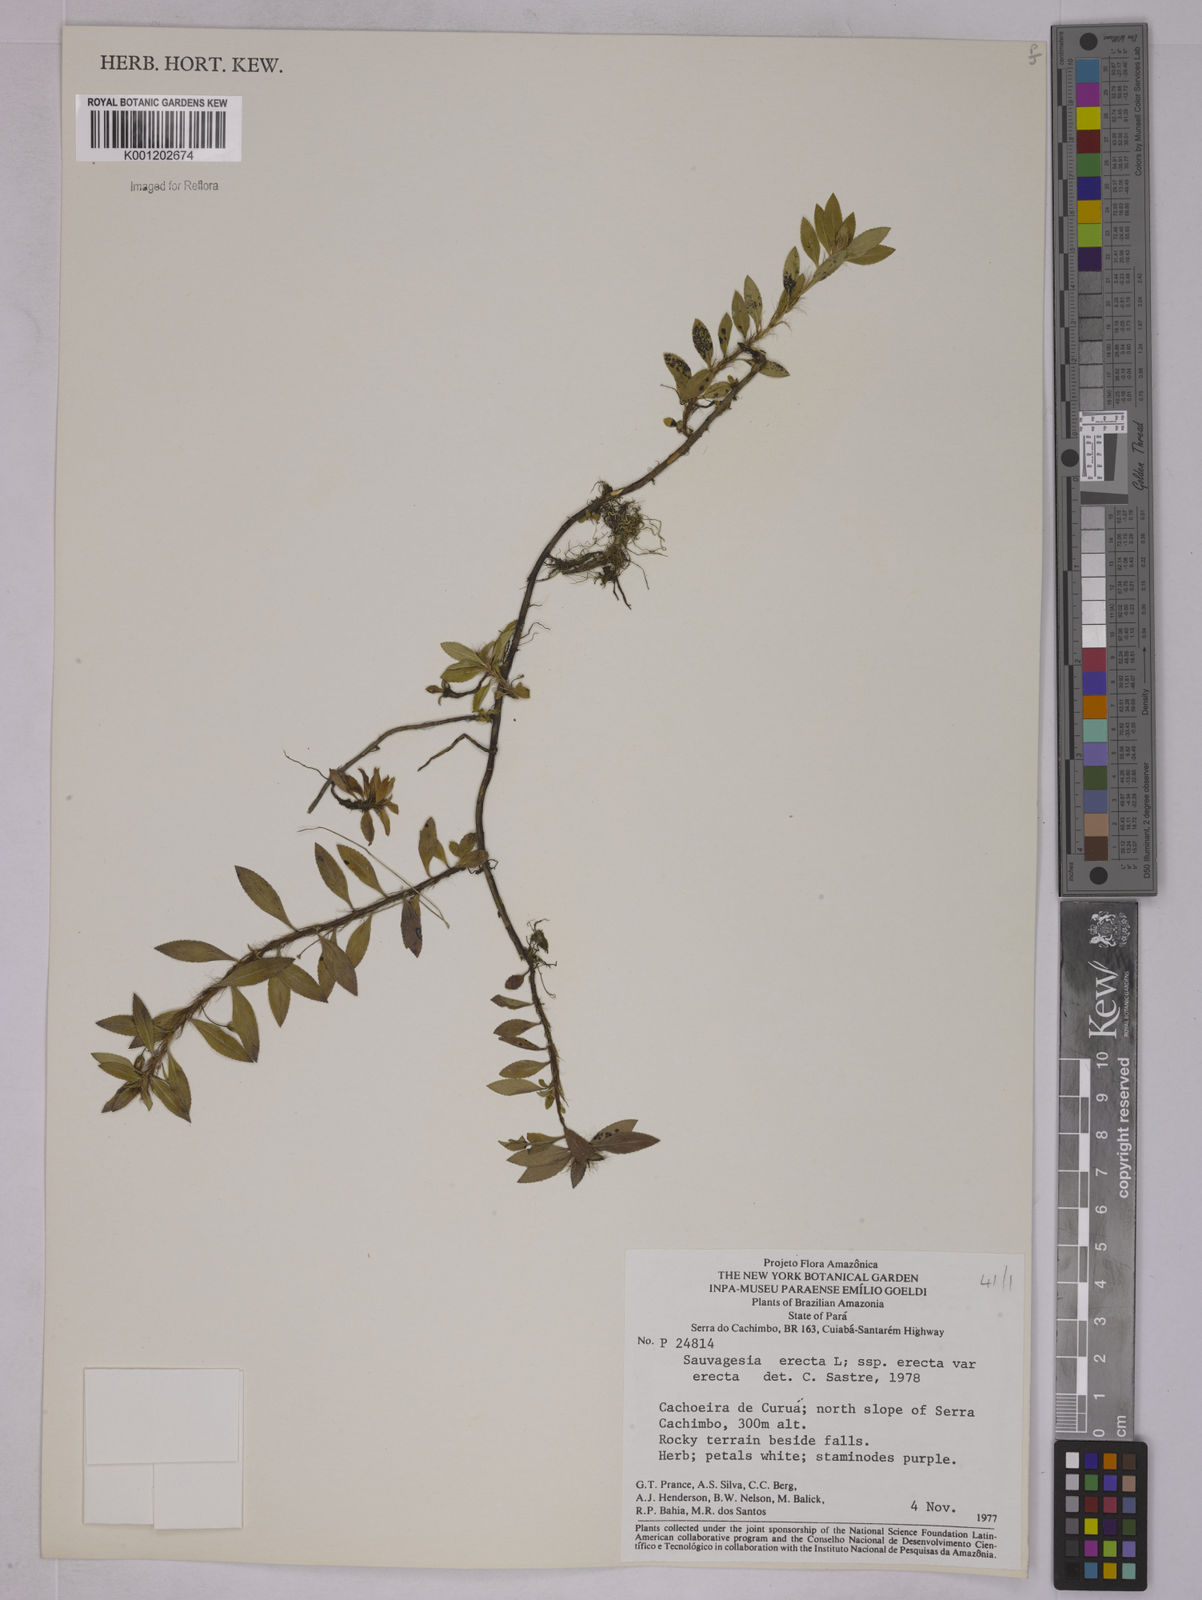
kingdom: Plantae
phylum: Tracheophyta
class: Magnoliopsida
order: Malpighiales
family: Ochnaceae
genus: Sauvagesia
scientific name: Sauvagesia erecta
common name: Creole tea
